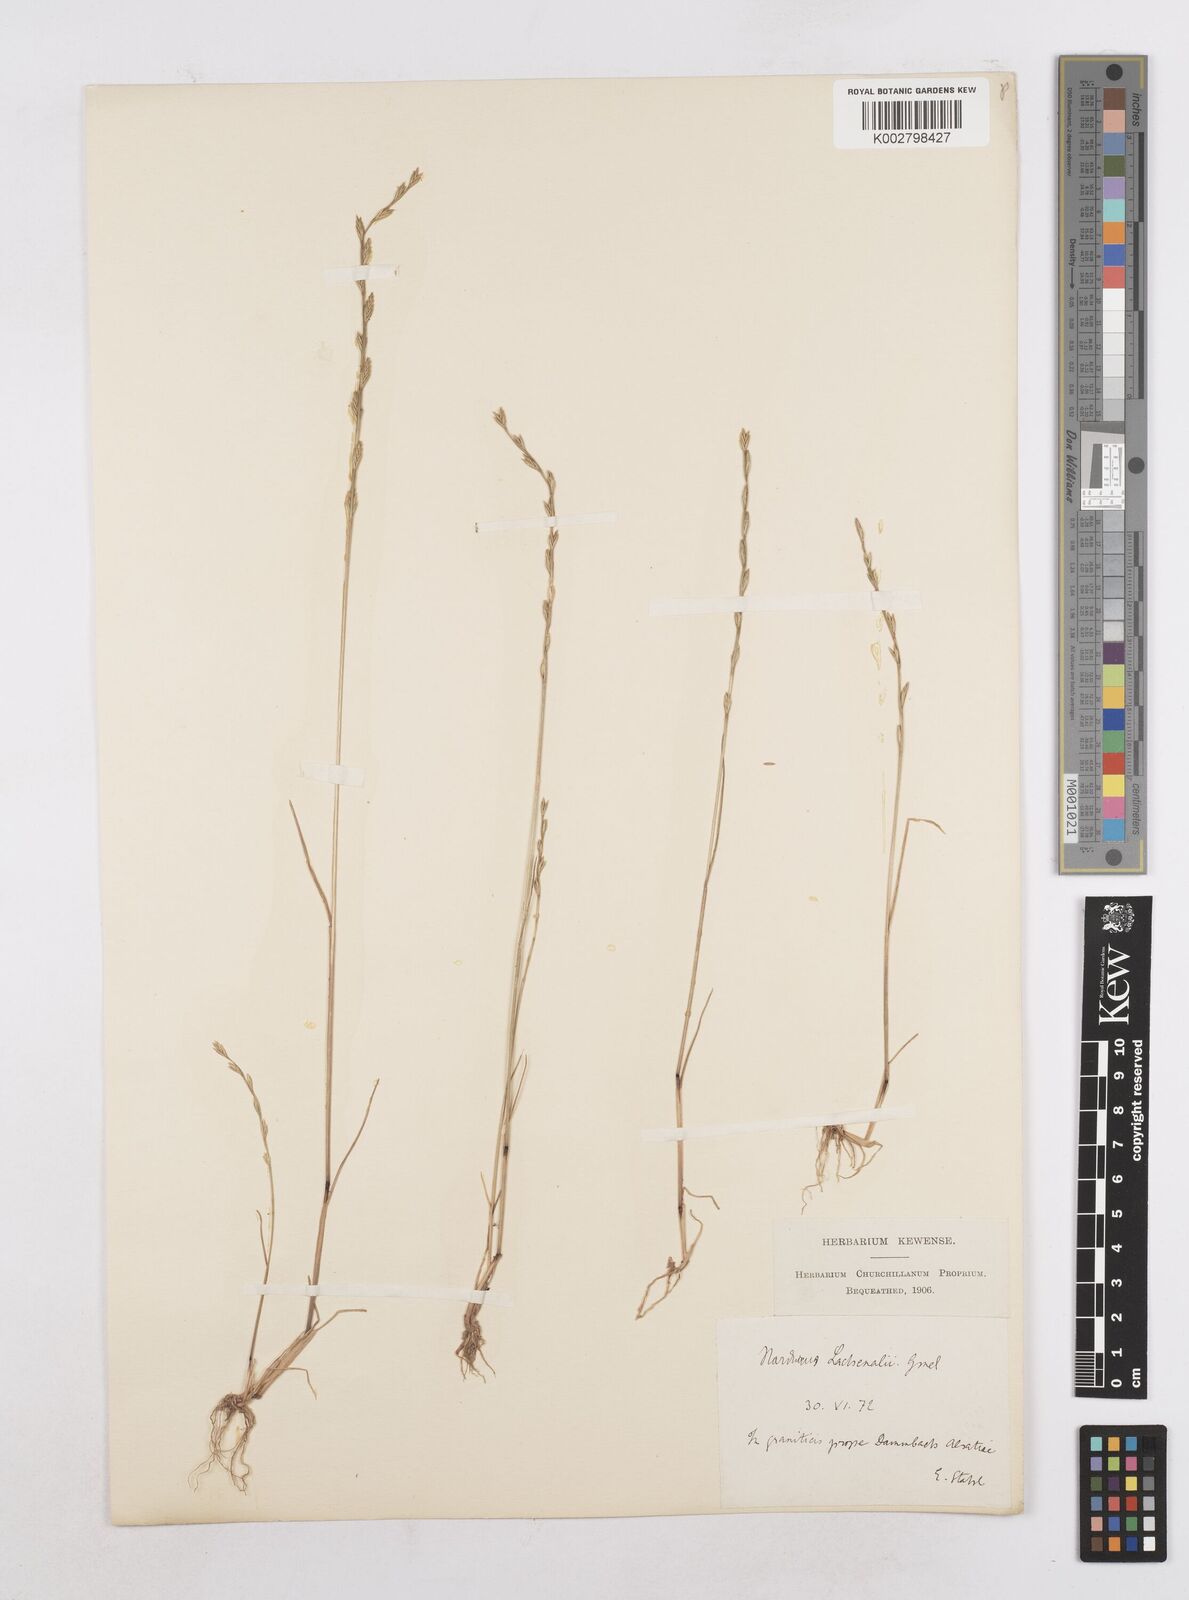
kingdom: Plantae
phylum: Tracheophyta
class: Liliopsida
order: Poales
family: Poaceae
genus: Festuca
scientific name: Festuca lachenalii
